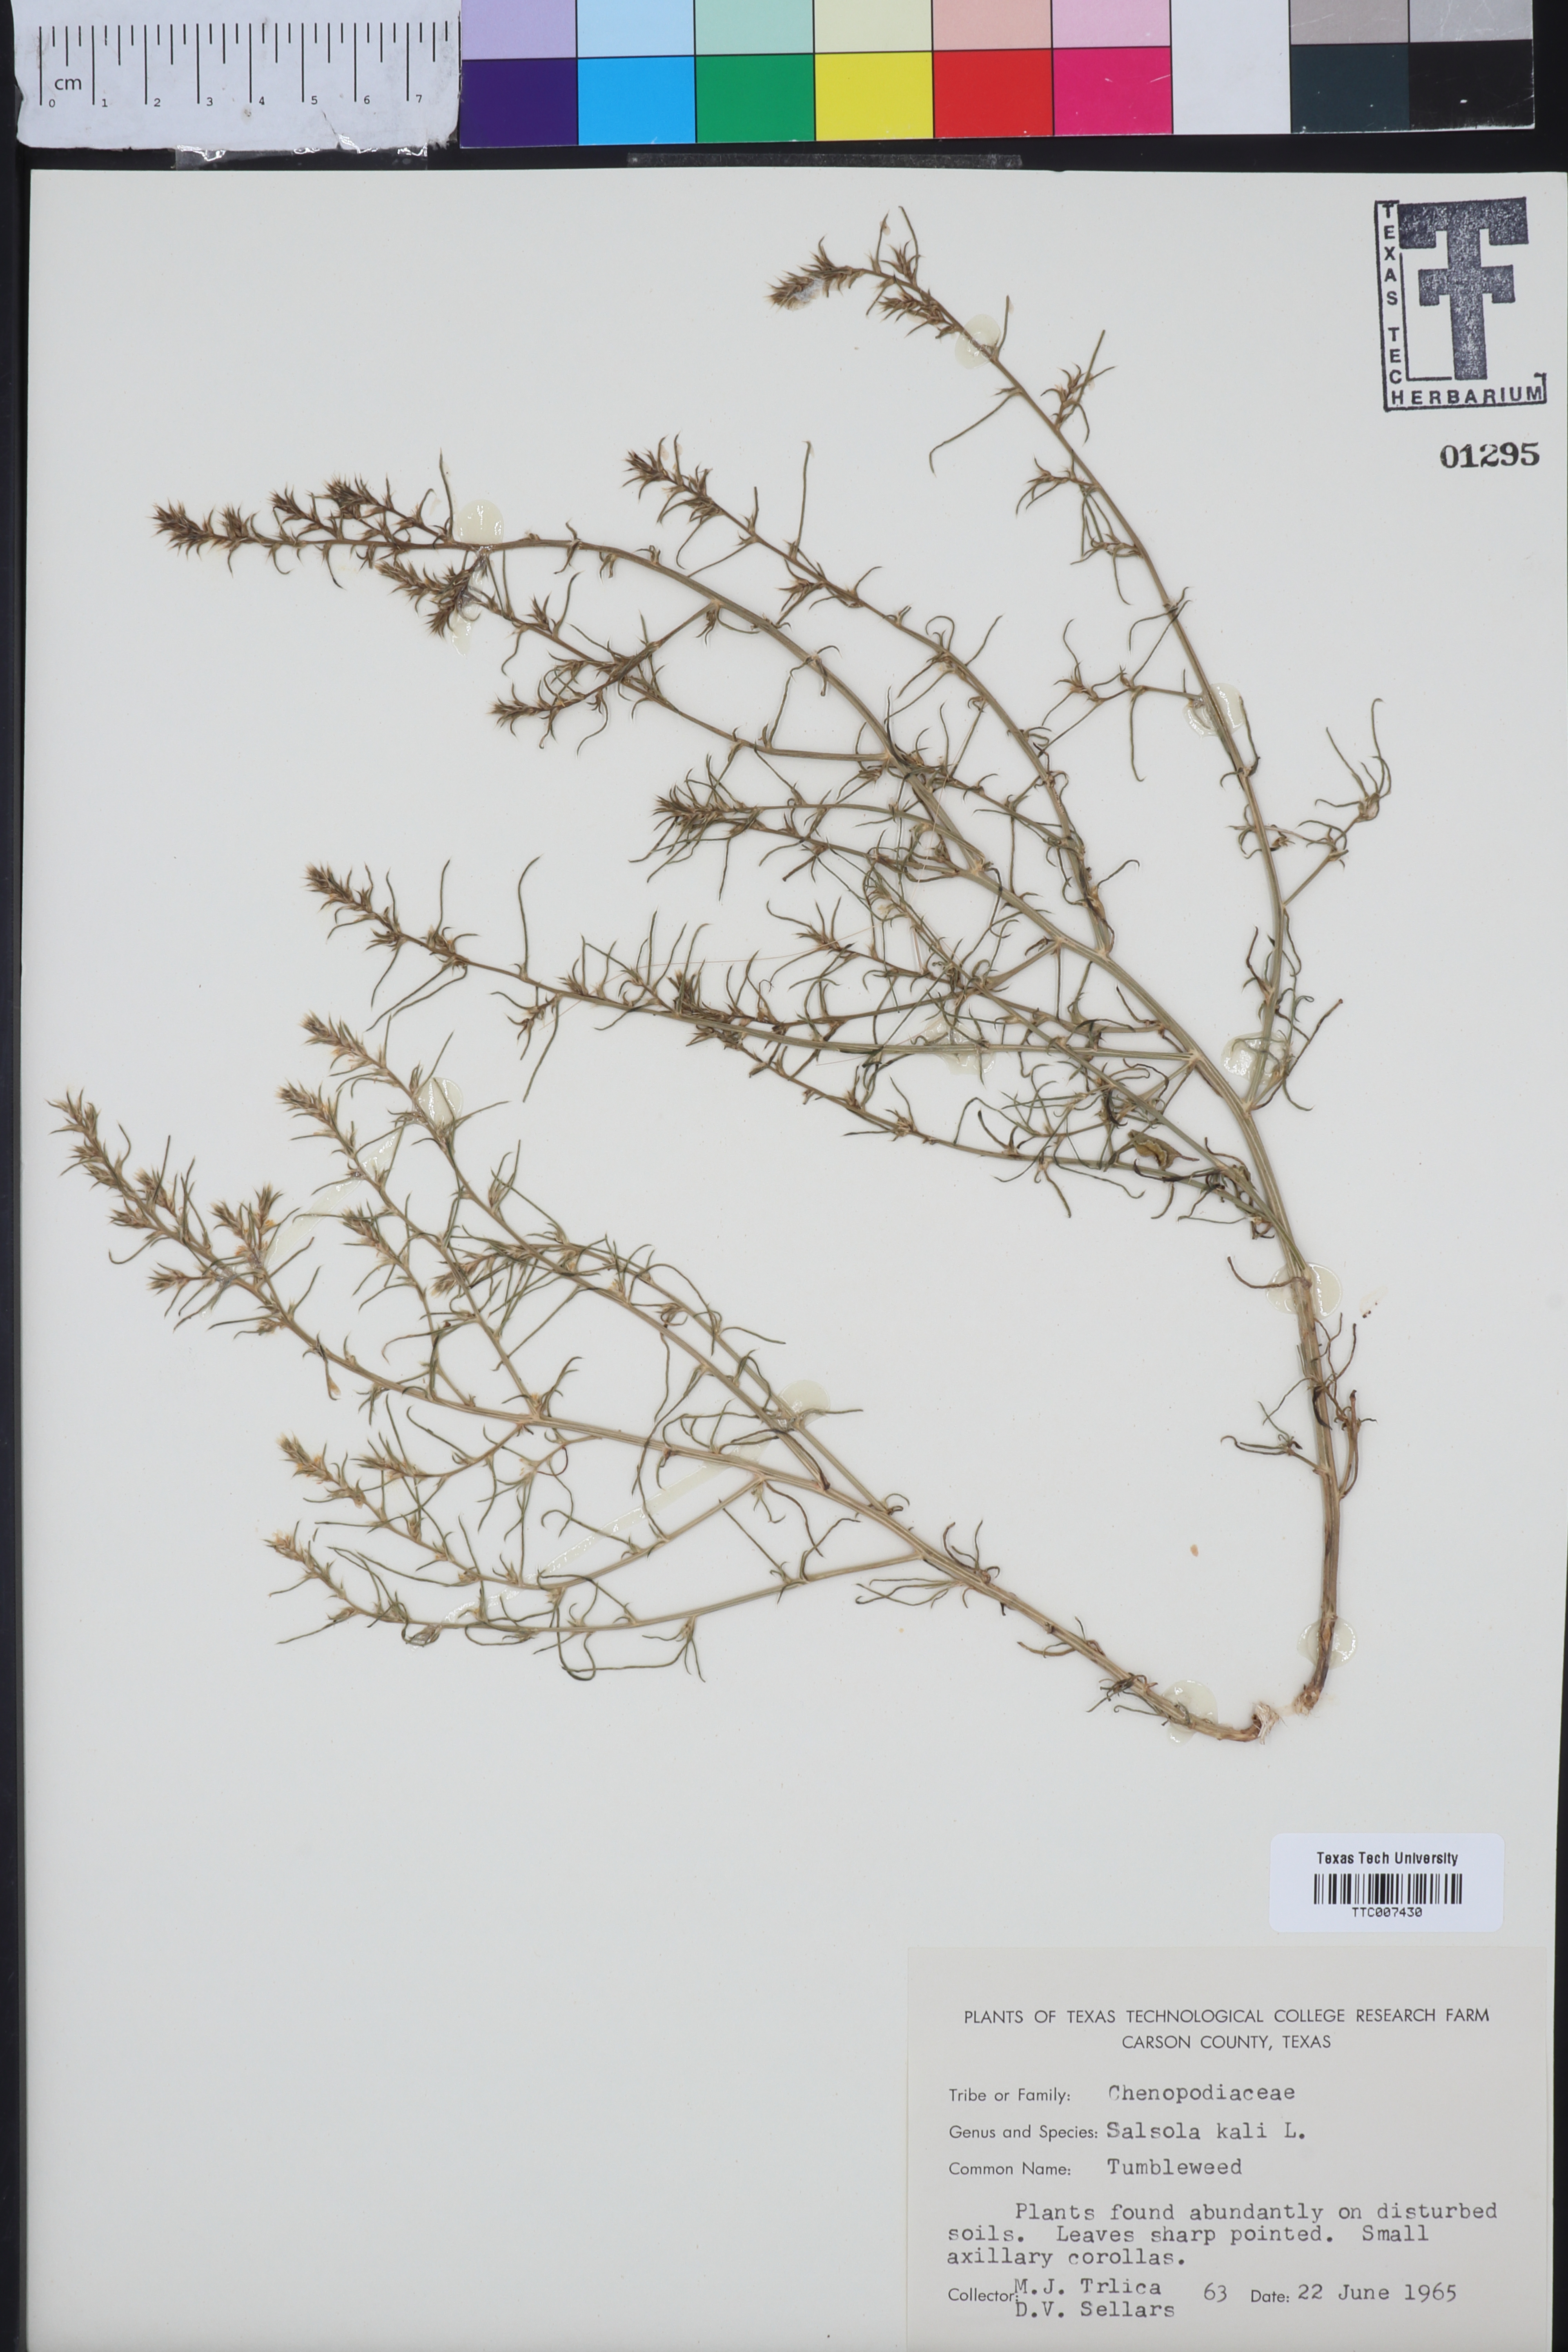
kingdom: Plantae
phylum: Tracheophyta
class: Magnoliopsida
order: Caryophyllales
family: Amaranthaceae
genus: Salsola
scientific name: Salsola kali
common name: Saltwort
